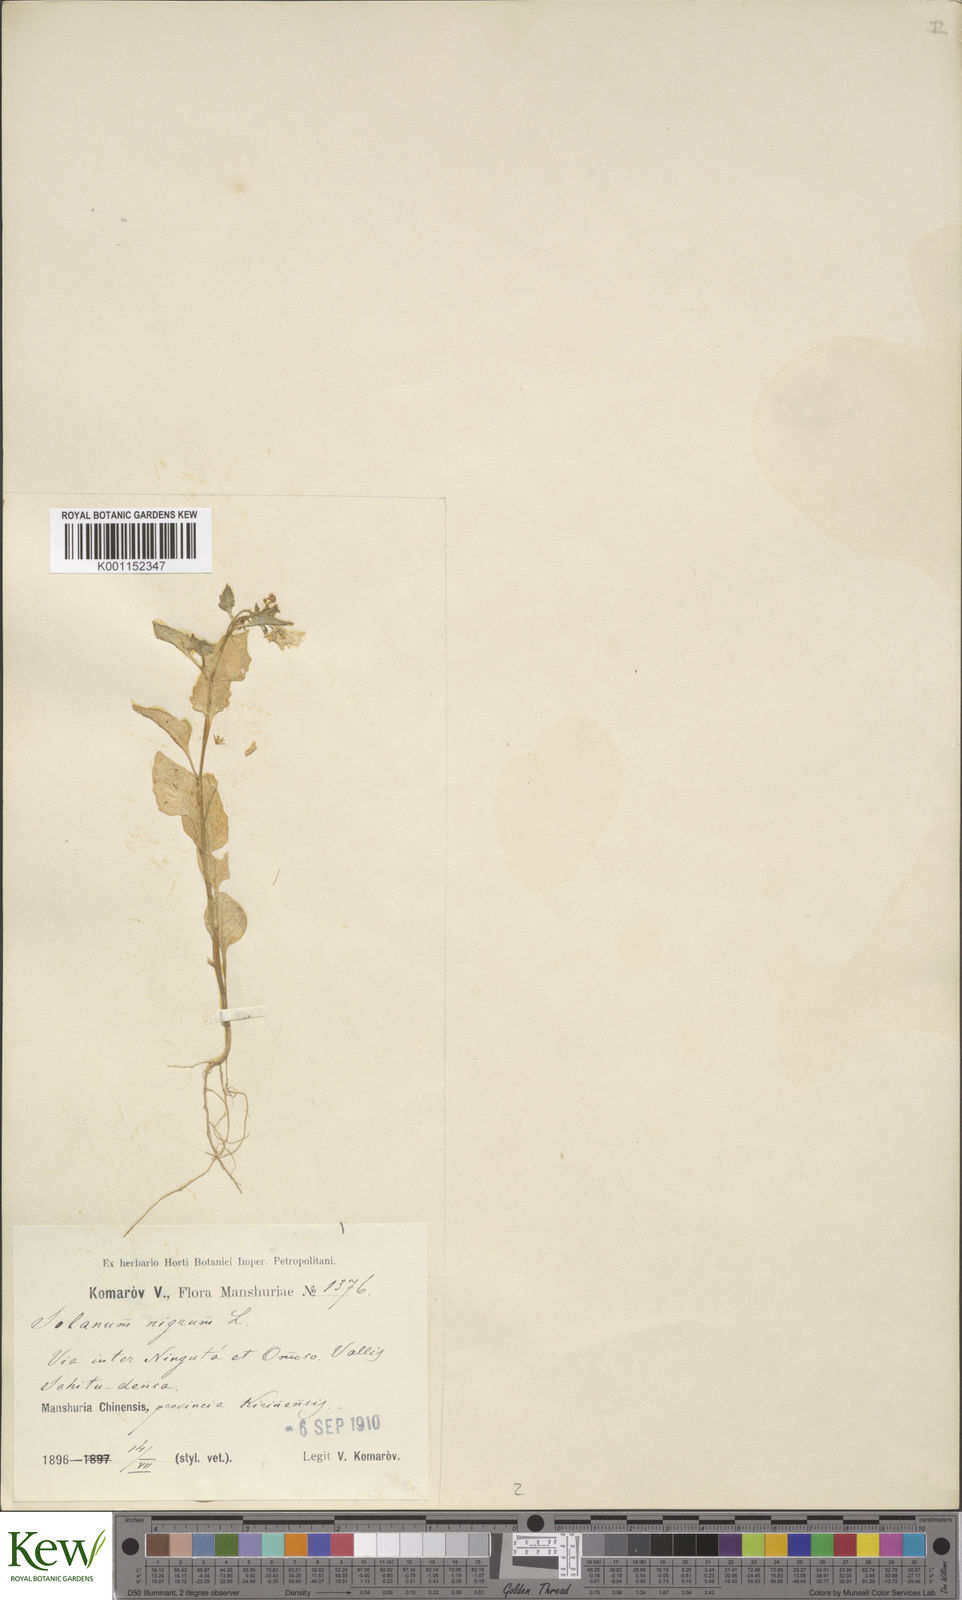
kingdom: Plantae
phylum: Tracheophyta
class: Magnoliopsida
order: Solanales
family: Solanaceae
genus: Solanum
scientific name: Solanum nigrum
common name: Black nightshade
